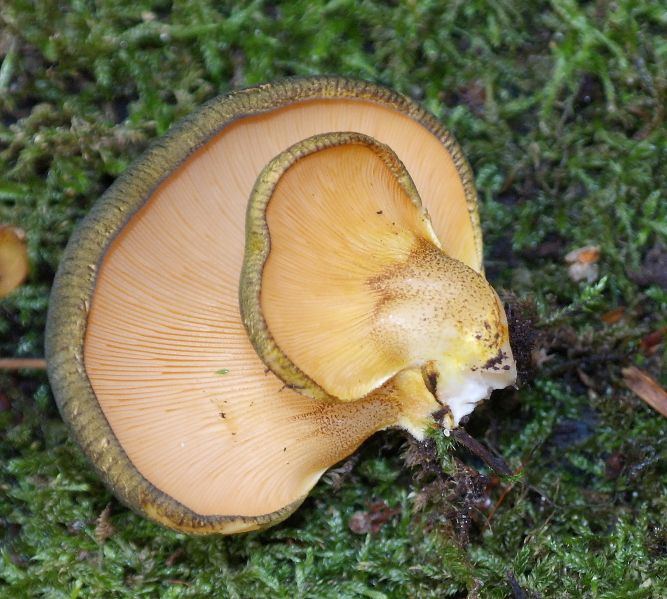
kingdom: Fungi
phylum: Basidiomycota
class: Agaricomycetes
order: Agaricales
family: Sarcomyxaceae
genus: Sarcomyxa
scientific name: Sarcomyxa serotina
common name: gummihat
